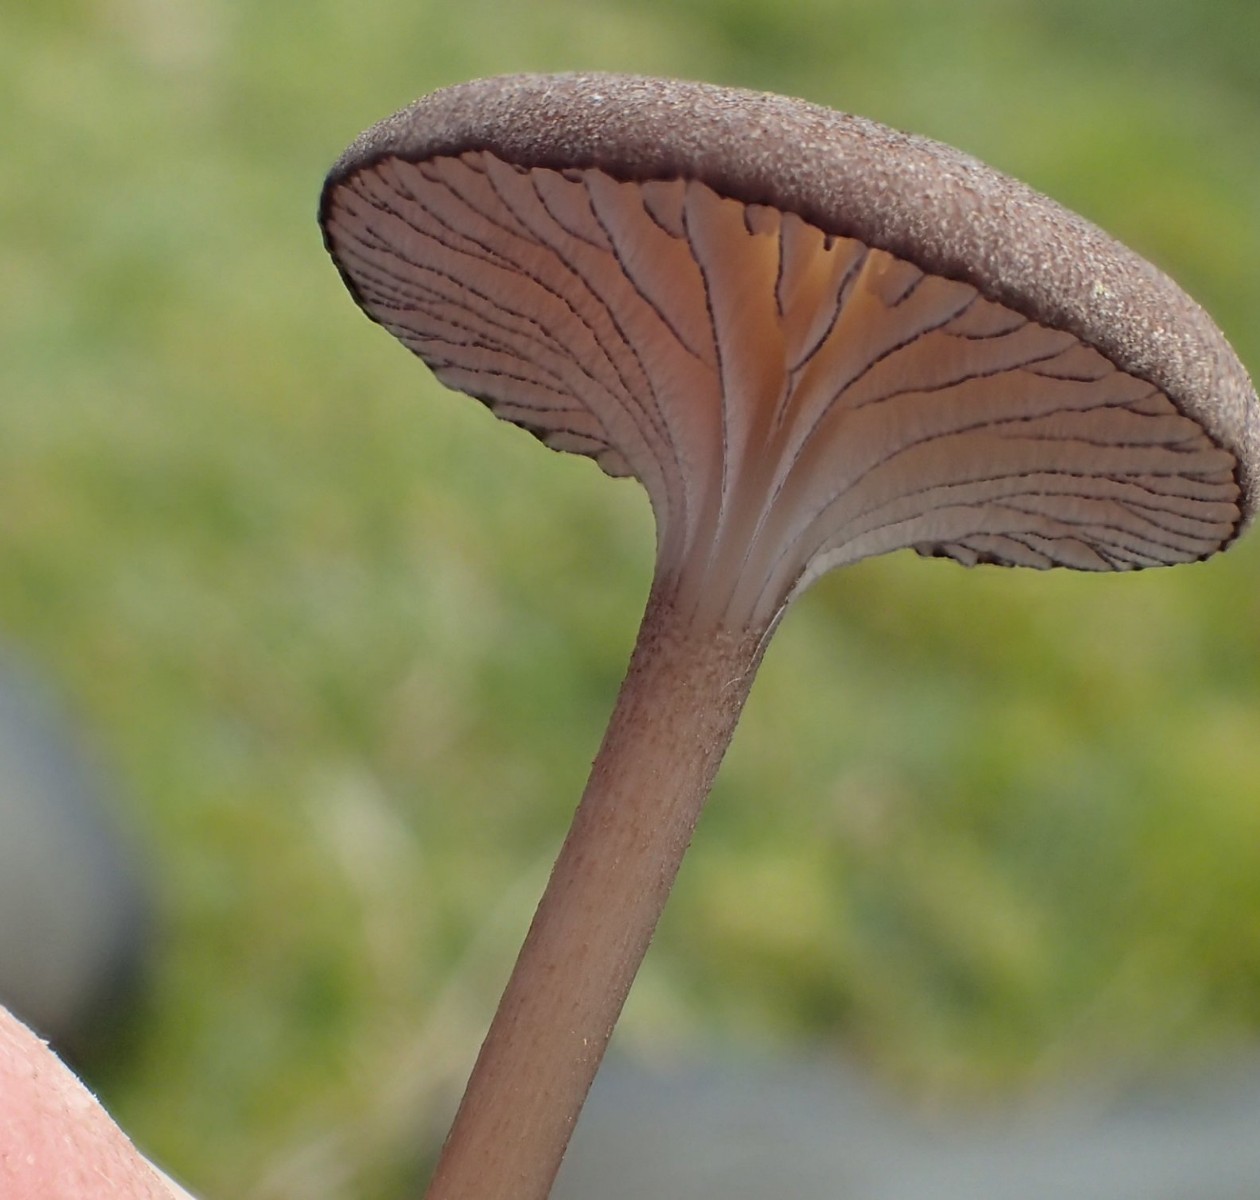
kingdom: Fungi
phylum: Basidiomycota
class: Agaricomycetes
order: Agaricales
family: Entolomataceae
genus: Entoloma
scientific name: Entoloma caesiocinctum
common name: Blue-girdled pinkgill
